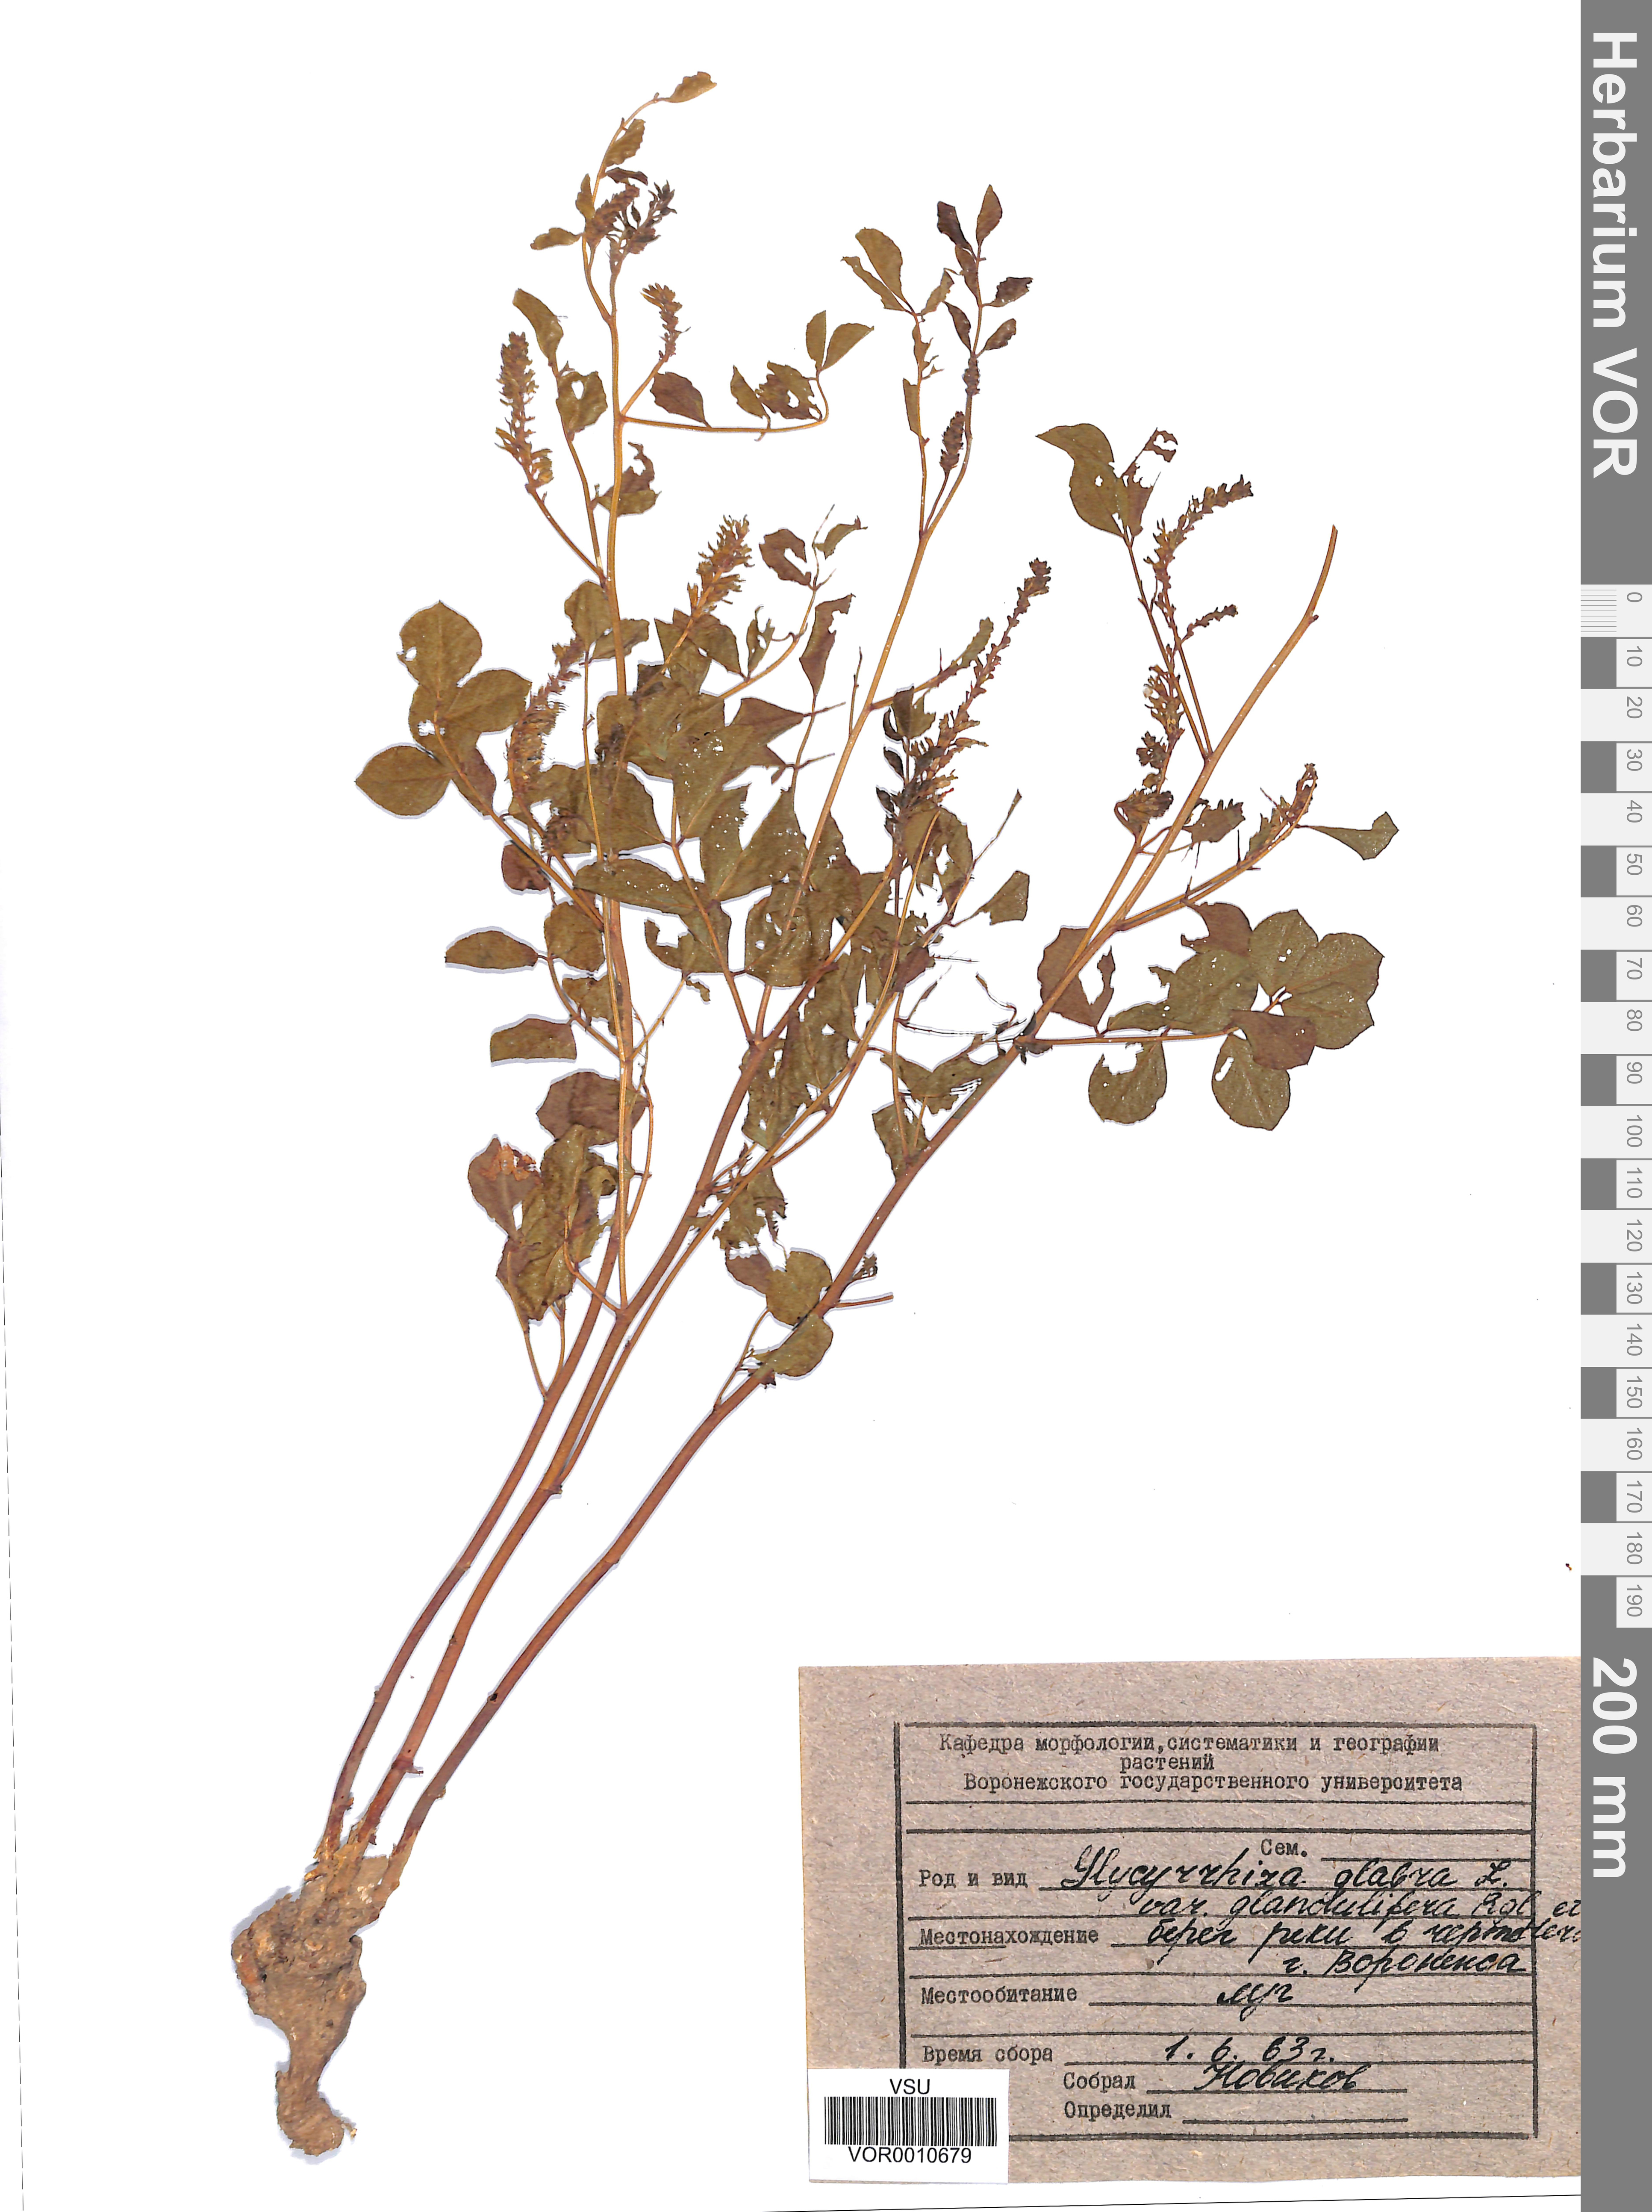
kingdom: Plantae
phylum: Tracheophyta
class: Magnoliopsida
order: Fabales
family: Fabaceae
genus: Glycyrrhiza
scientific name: Glycyrrhiza glabra
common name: Liquorice
